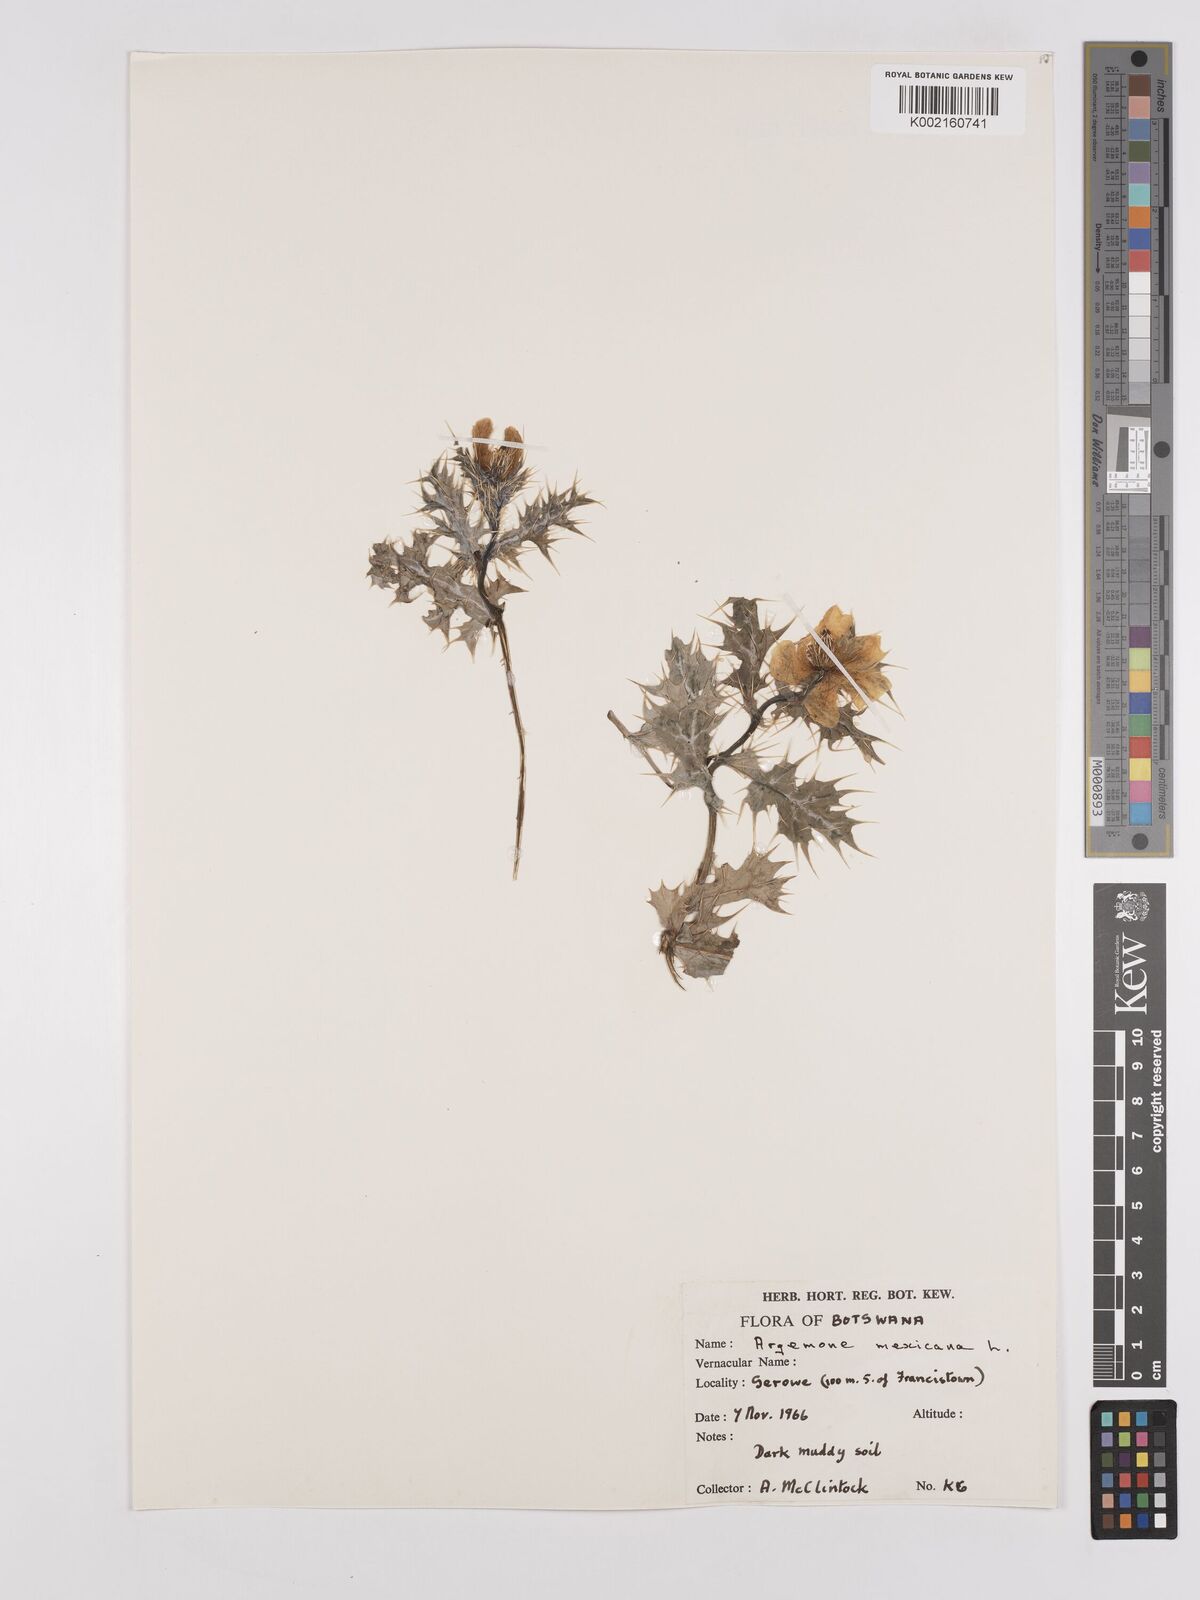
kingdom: Plantae
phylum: Tracheophyta
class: Magnoliopsida
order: Ranunculales
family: Papaveraceae
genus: Argemone
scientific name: Argemone mexicana
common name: Mexican poppy
